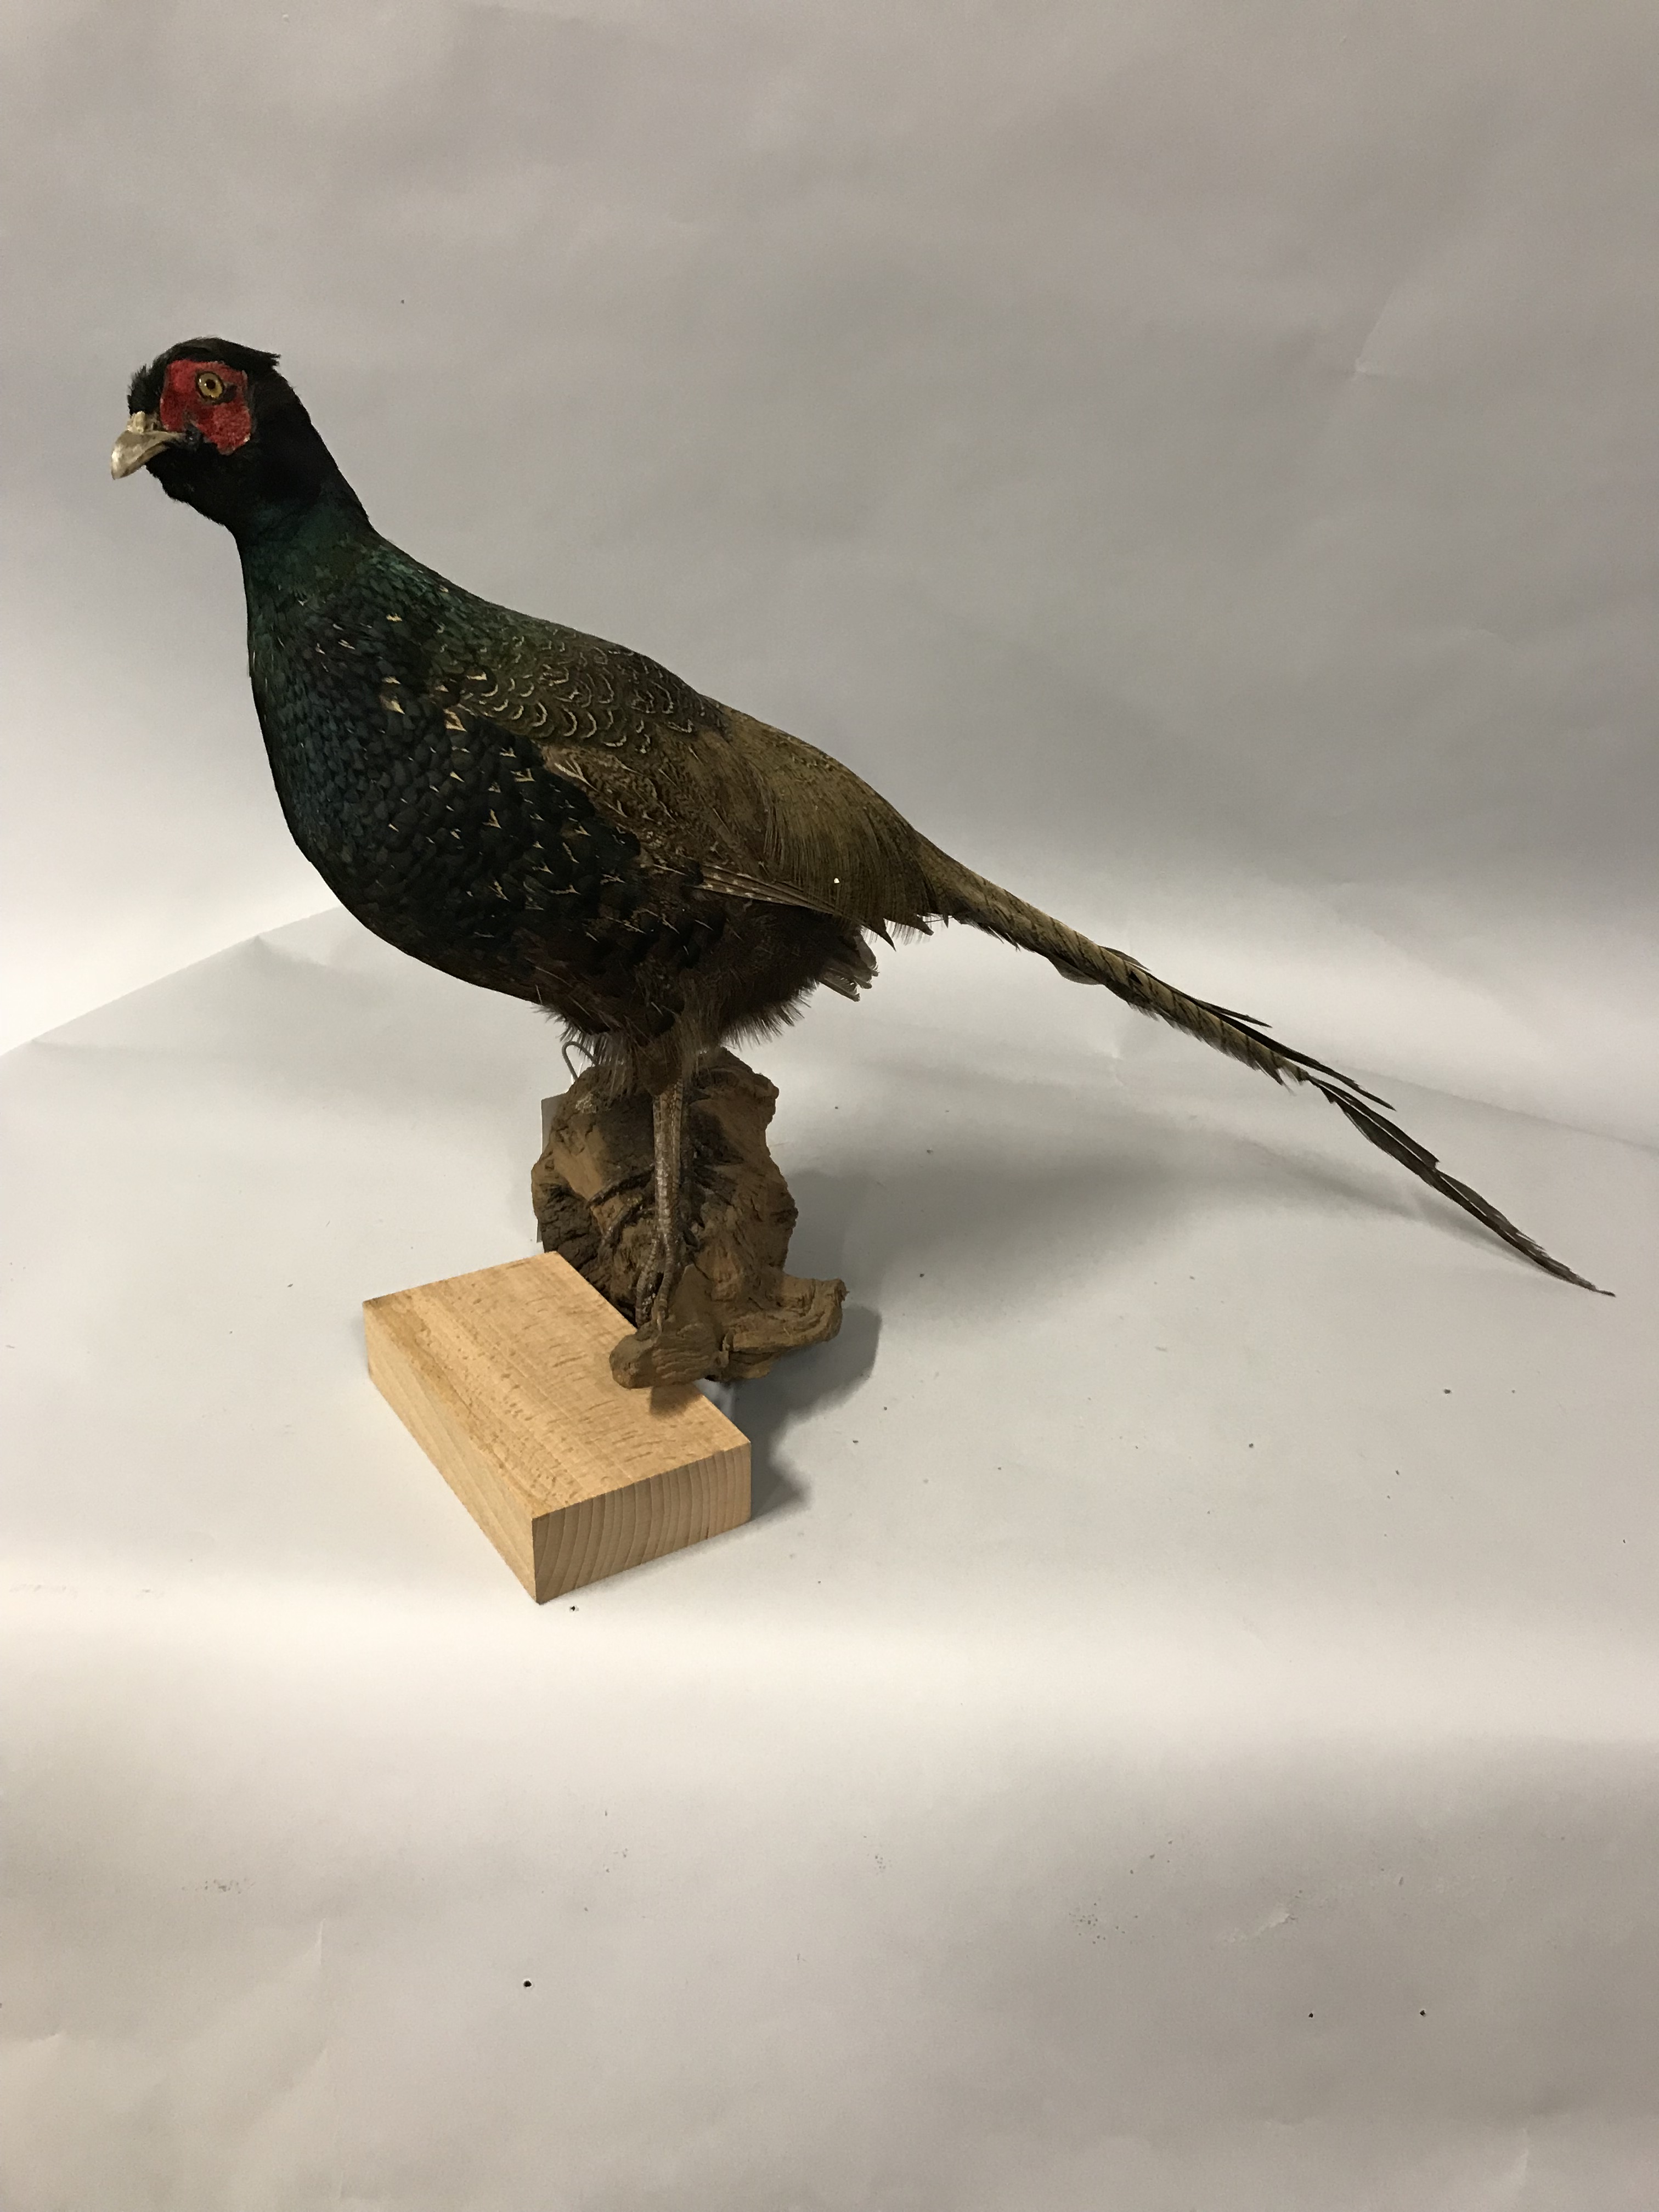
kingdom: Animalia
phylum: Chordata
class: Aves
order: Galliformes
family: Phasianidae
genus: Phasianus
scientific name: Phasianus versicolor
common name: Green pheasant
